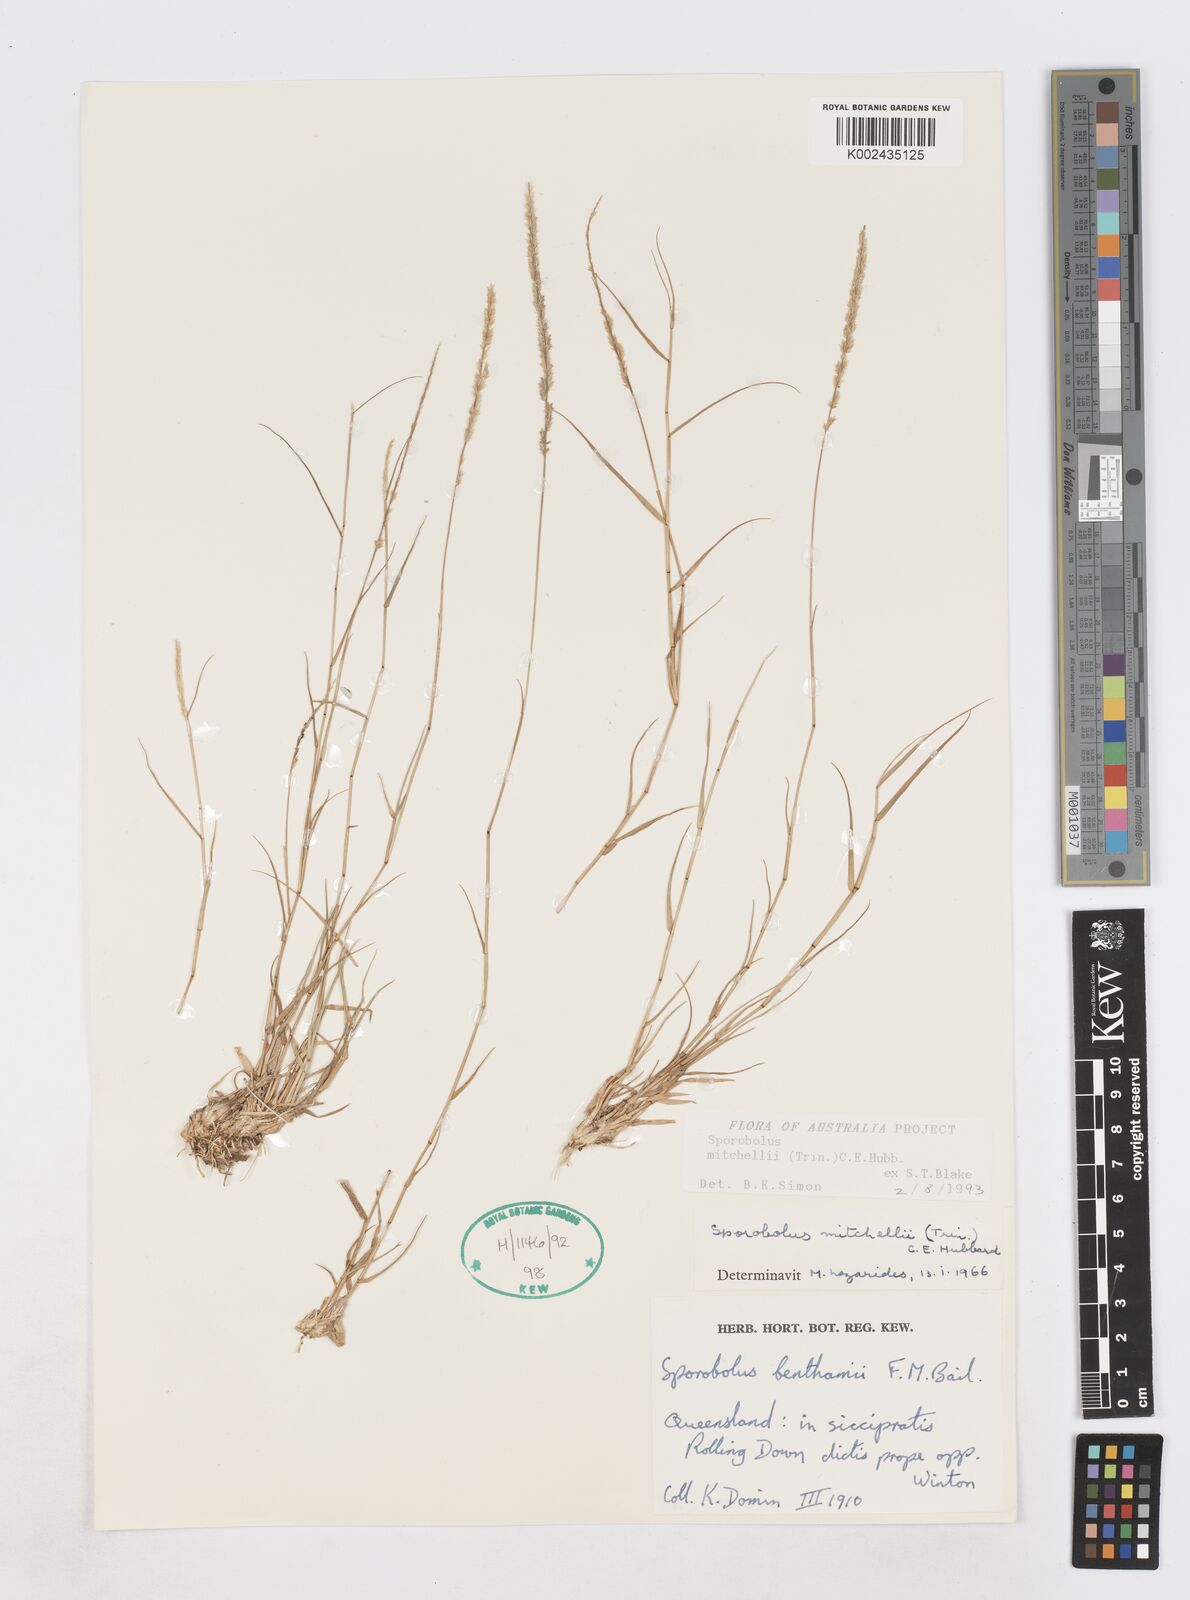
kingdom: Plantae
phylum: Tracheophyta
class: Liliopsida
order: Poales
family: Poaceae
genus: Sporobolus
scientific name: Sporobolus mitchellii
